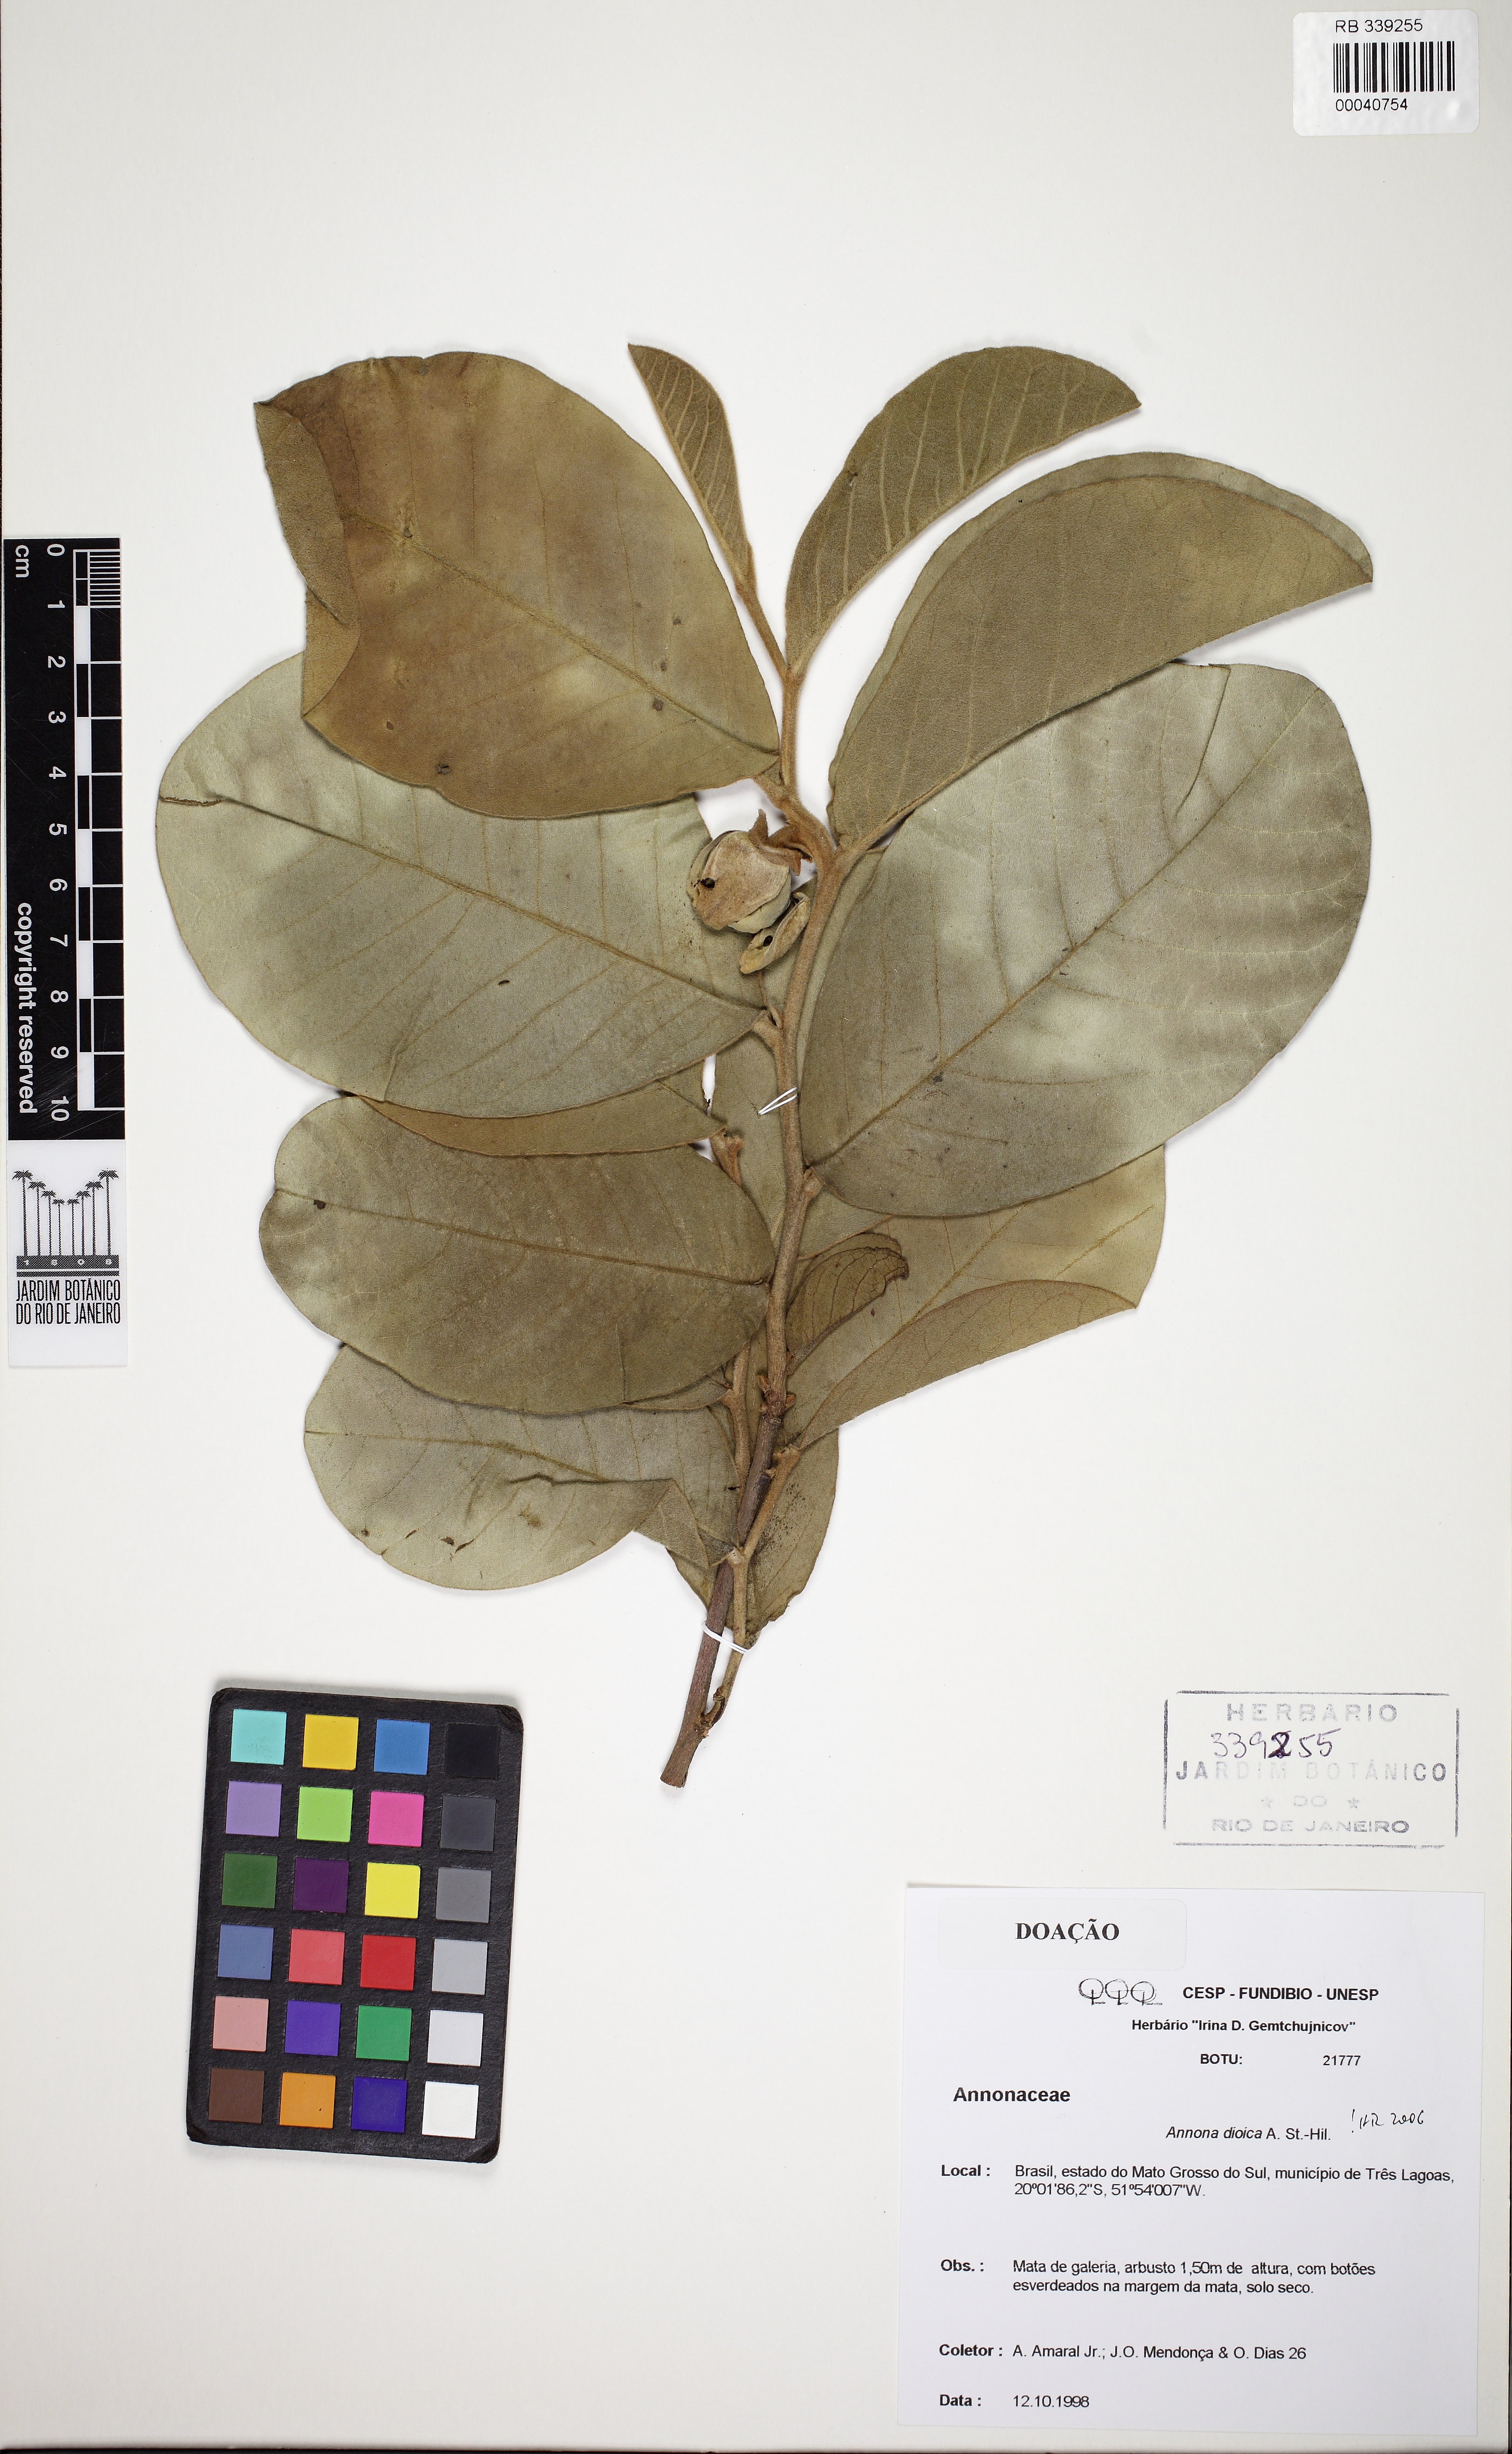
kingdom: Plantae
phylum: Tracheophyta
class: Magnoliopsida
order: Magnoliales
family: Annonaceae
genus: Annona
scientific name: Annona dioica
